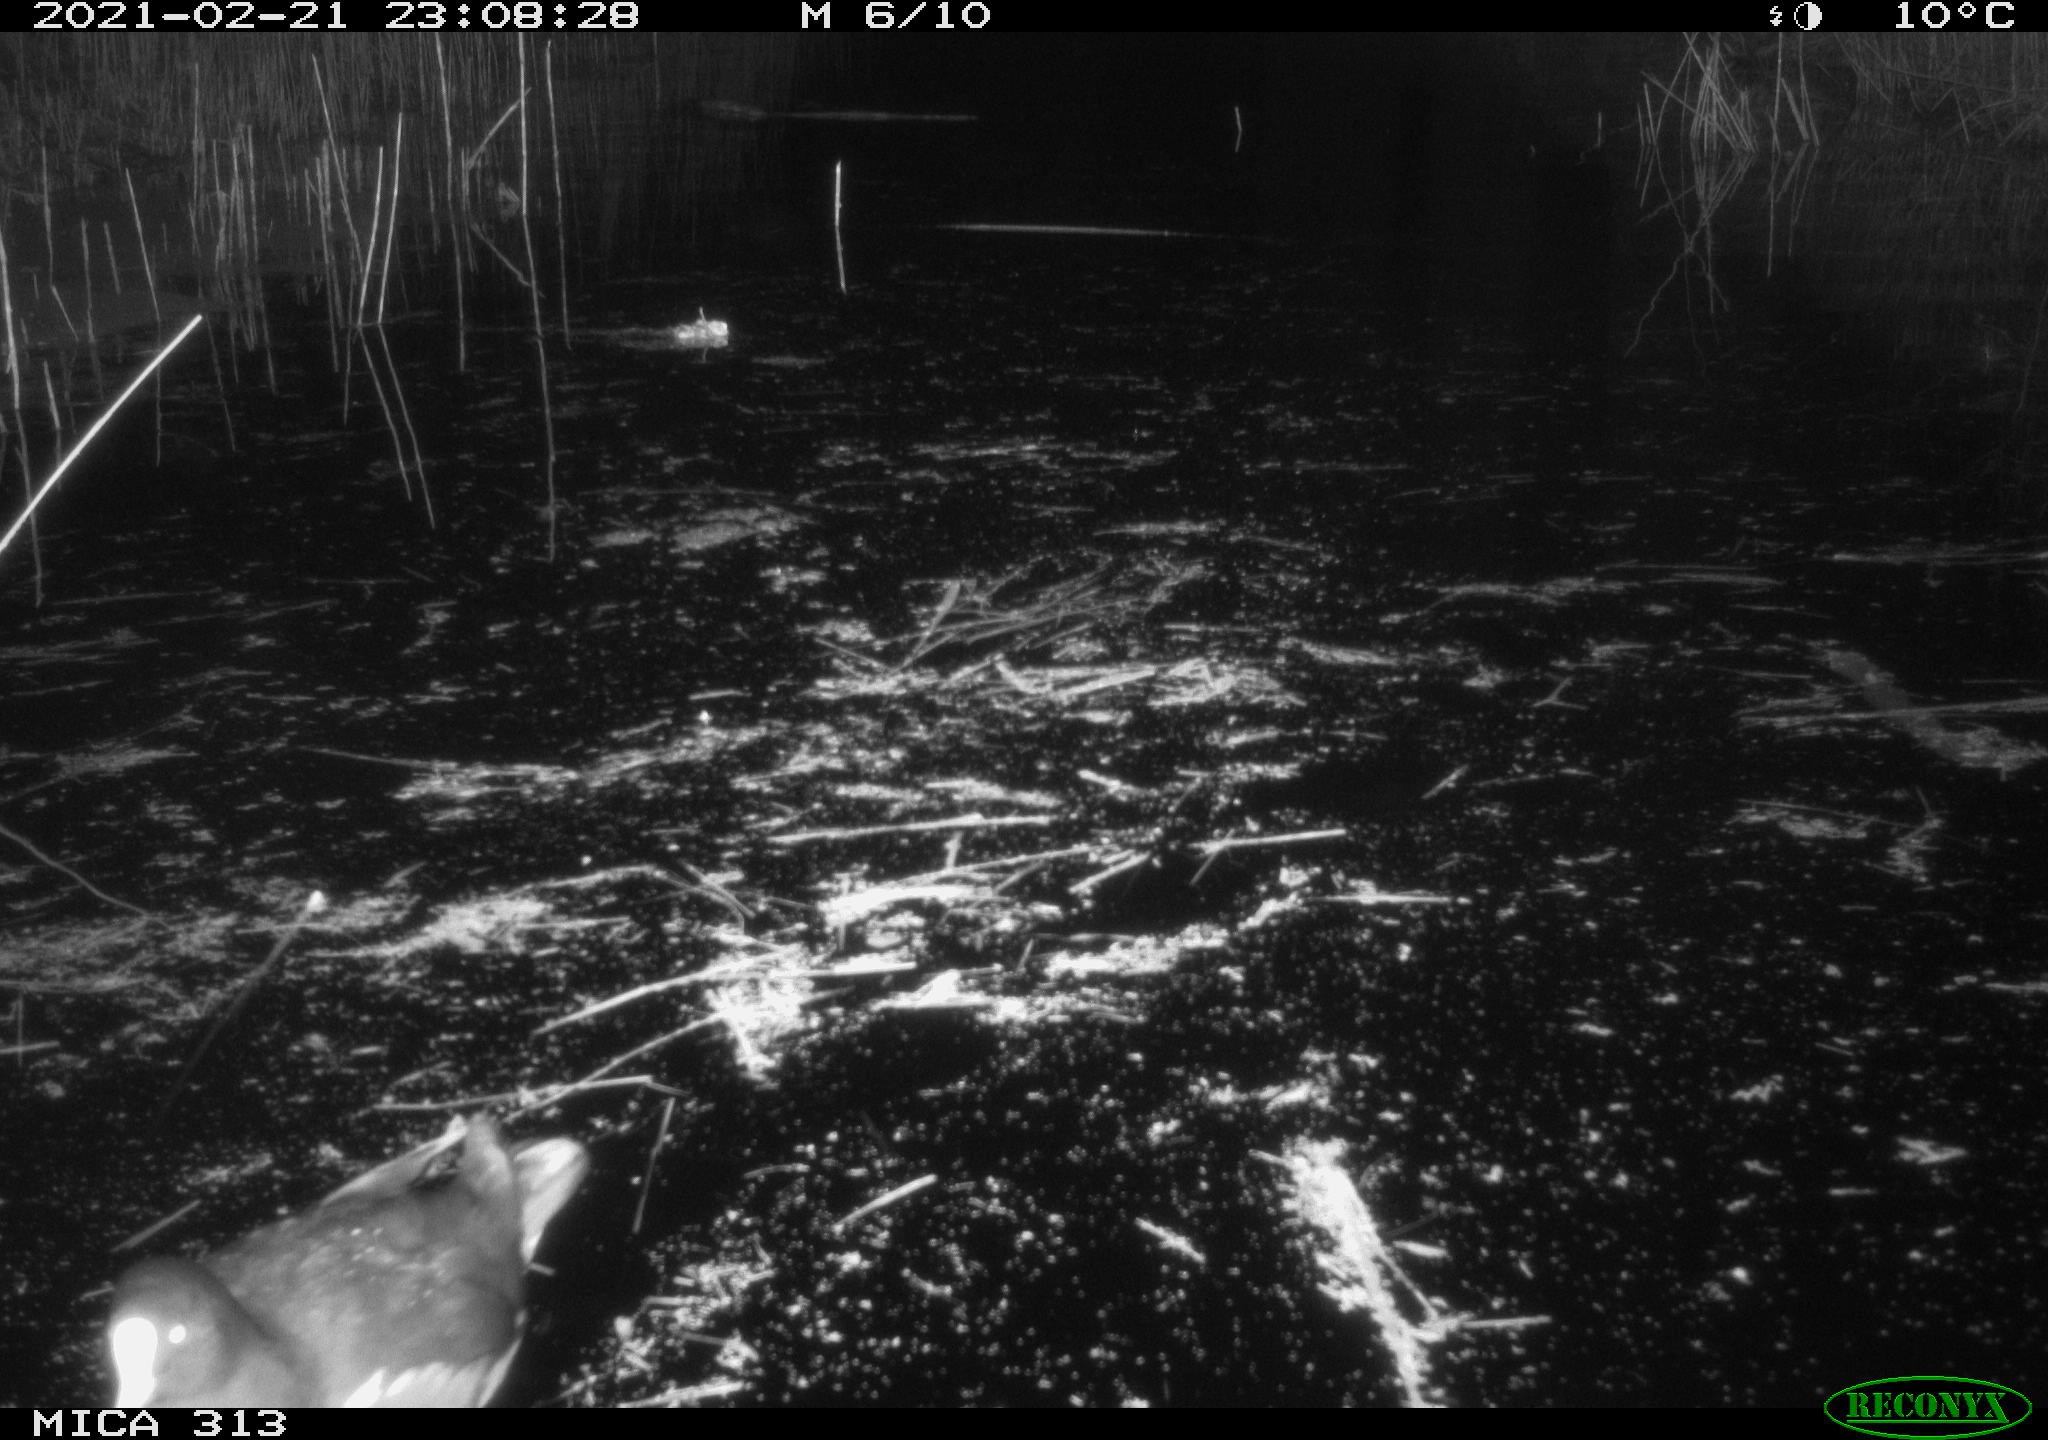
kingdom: Animalia
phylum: Chordata
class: Aves
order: Gruiformes
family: Rallidae
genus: Gallinula
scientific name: Gallinula chloropus
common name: Common moorhen
